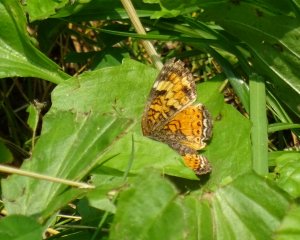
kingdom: Animalia
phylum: Arthropoda
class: Insecta
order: Lepidoptera
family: Nymphalidae
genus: Phyciodes
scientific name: Phyciodes tharos
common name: Northern Crescent
